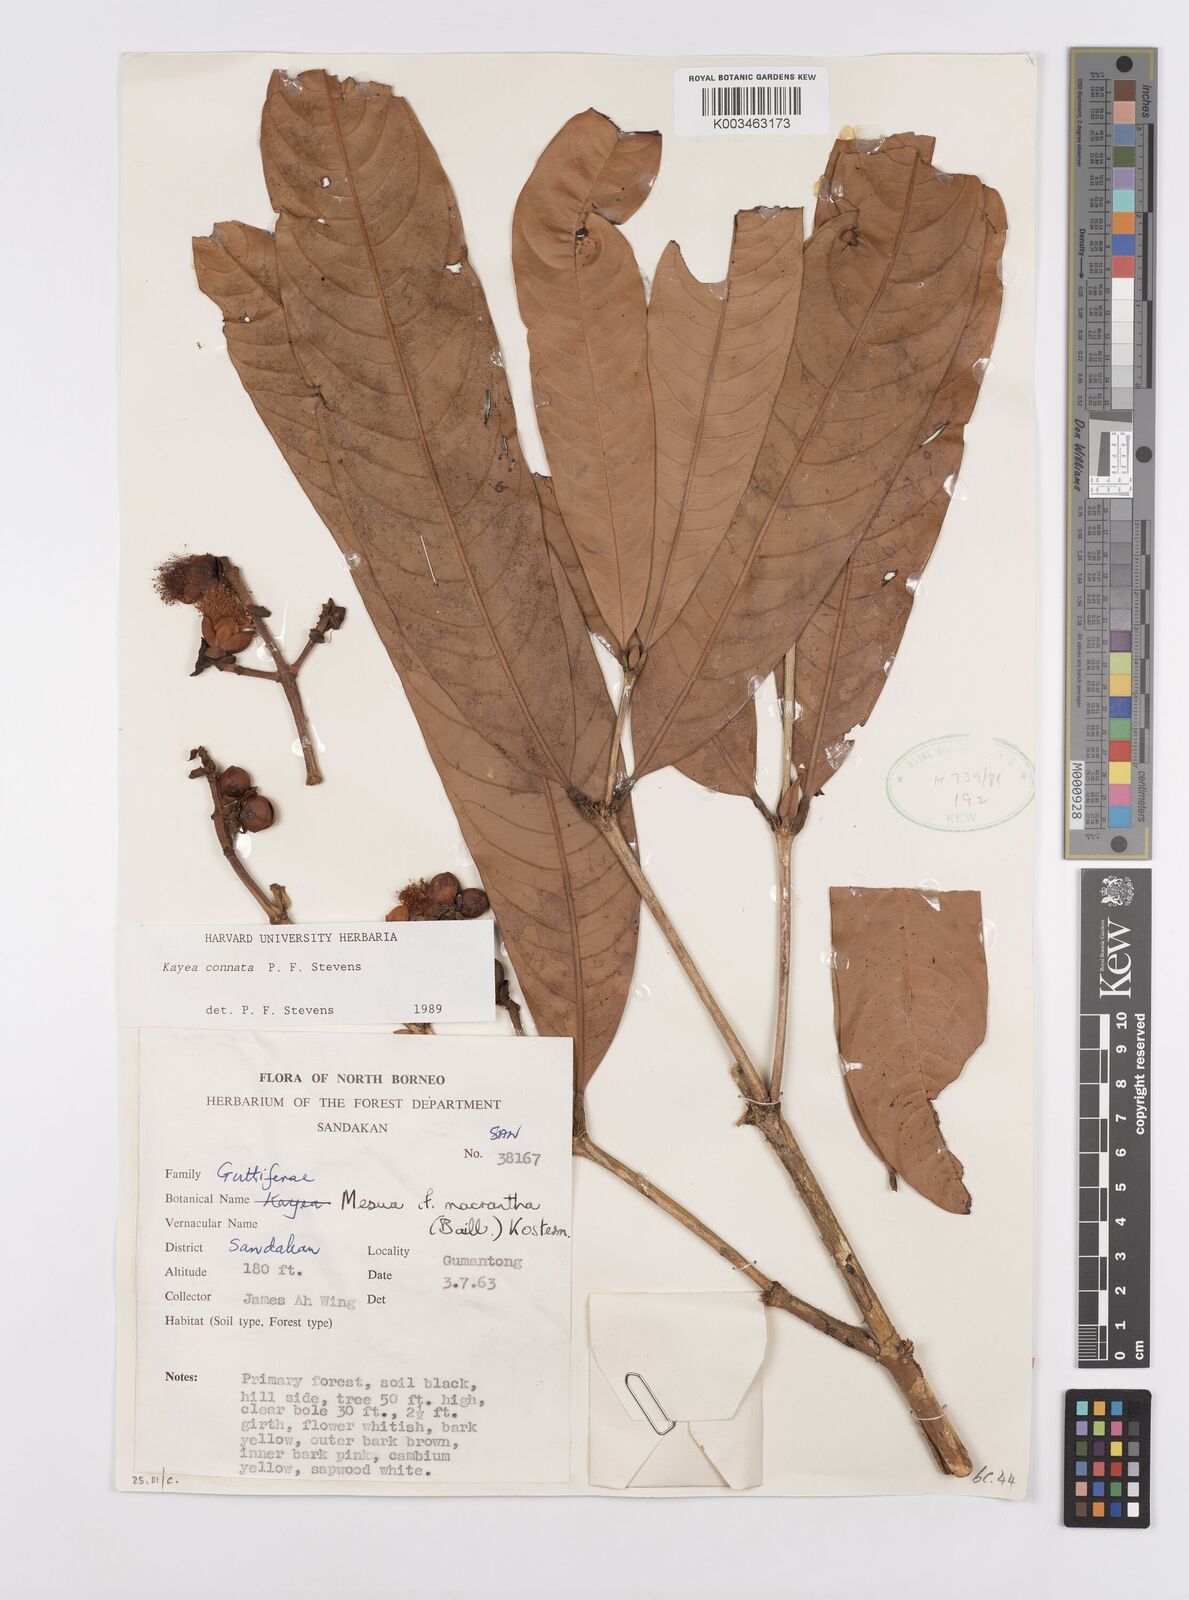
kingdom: Plantae
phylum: Tracheophyta
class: Magnoliopsida
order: Malpighiales
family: Calophyllaceae
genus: Kayea
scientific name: Kayea
